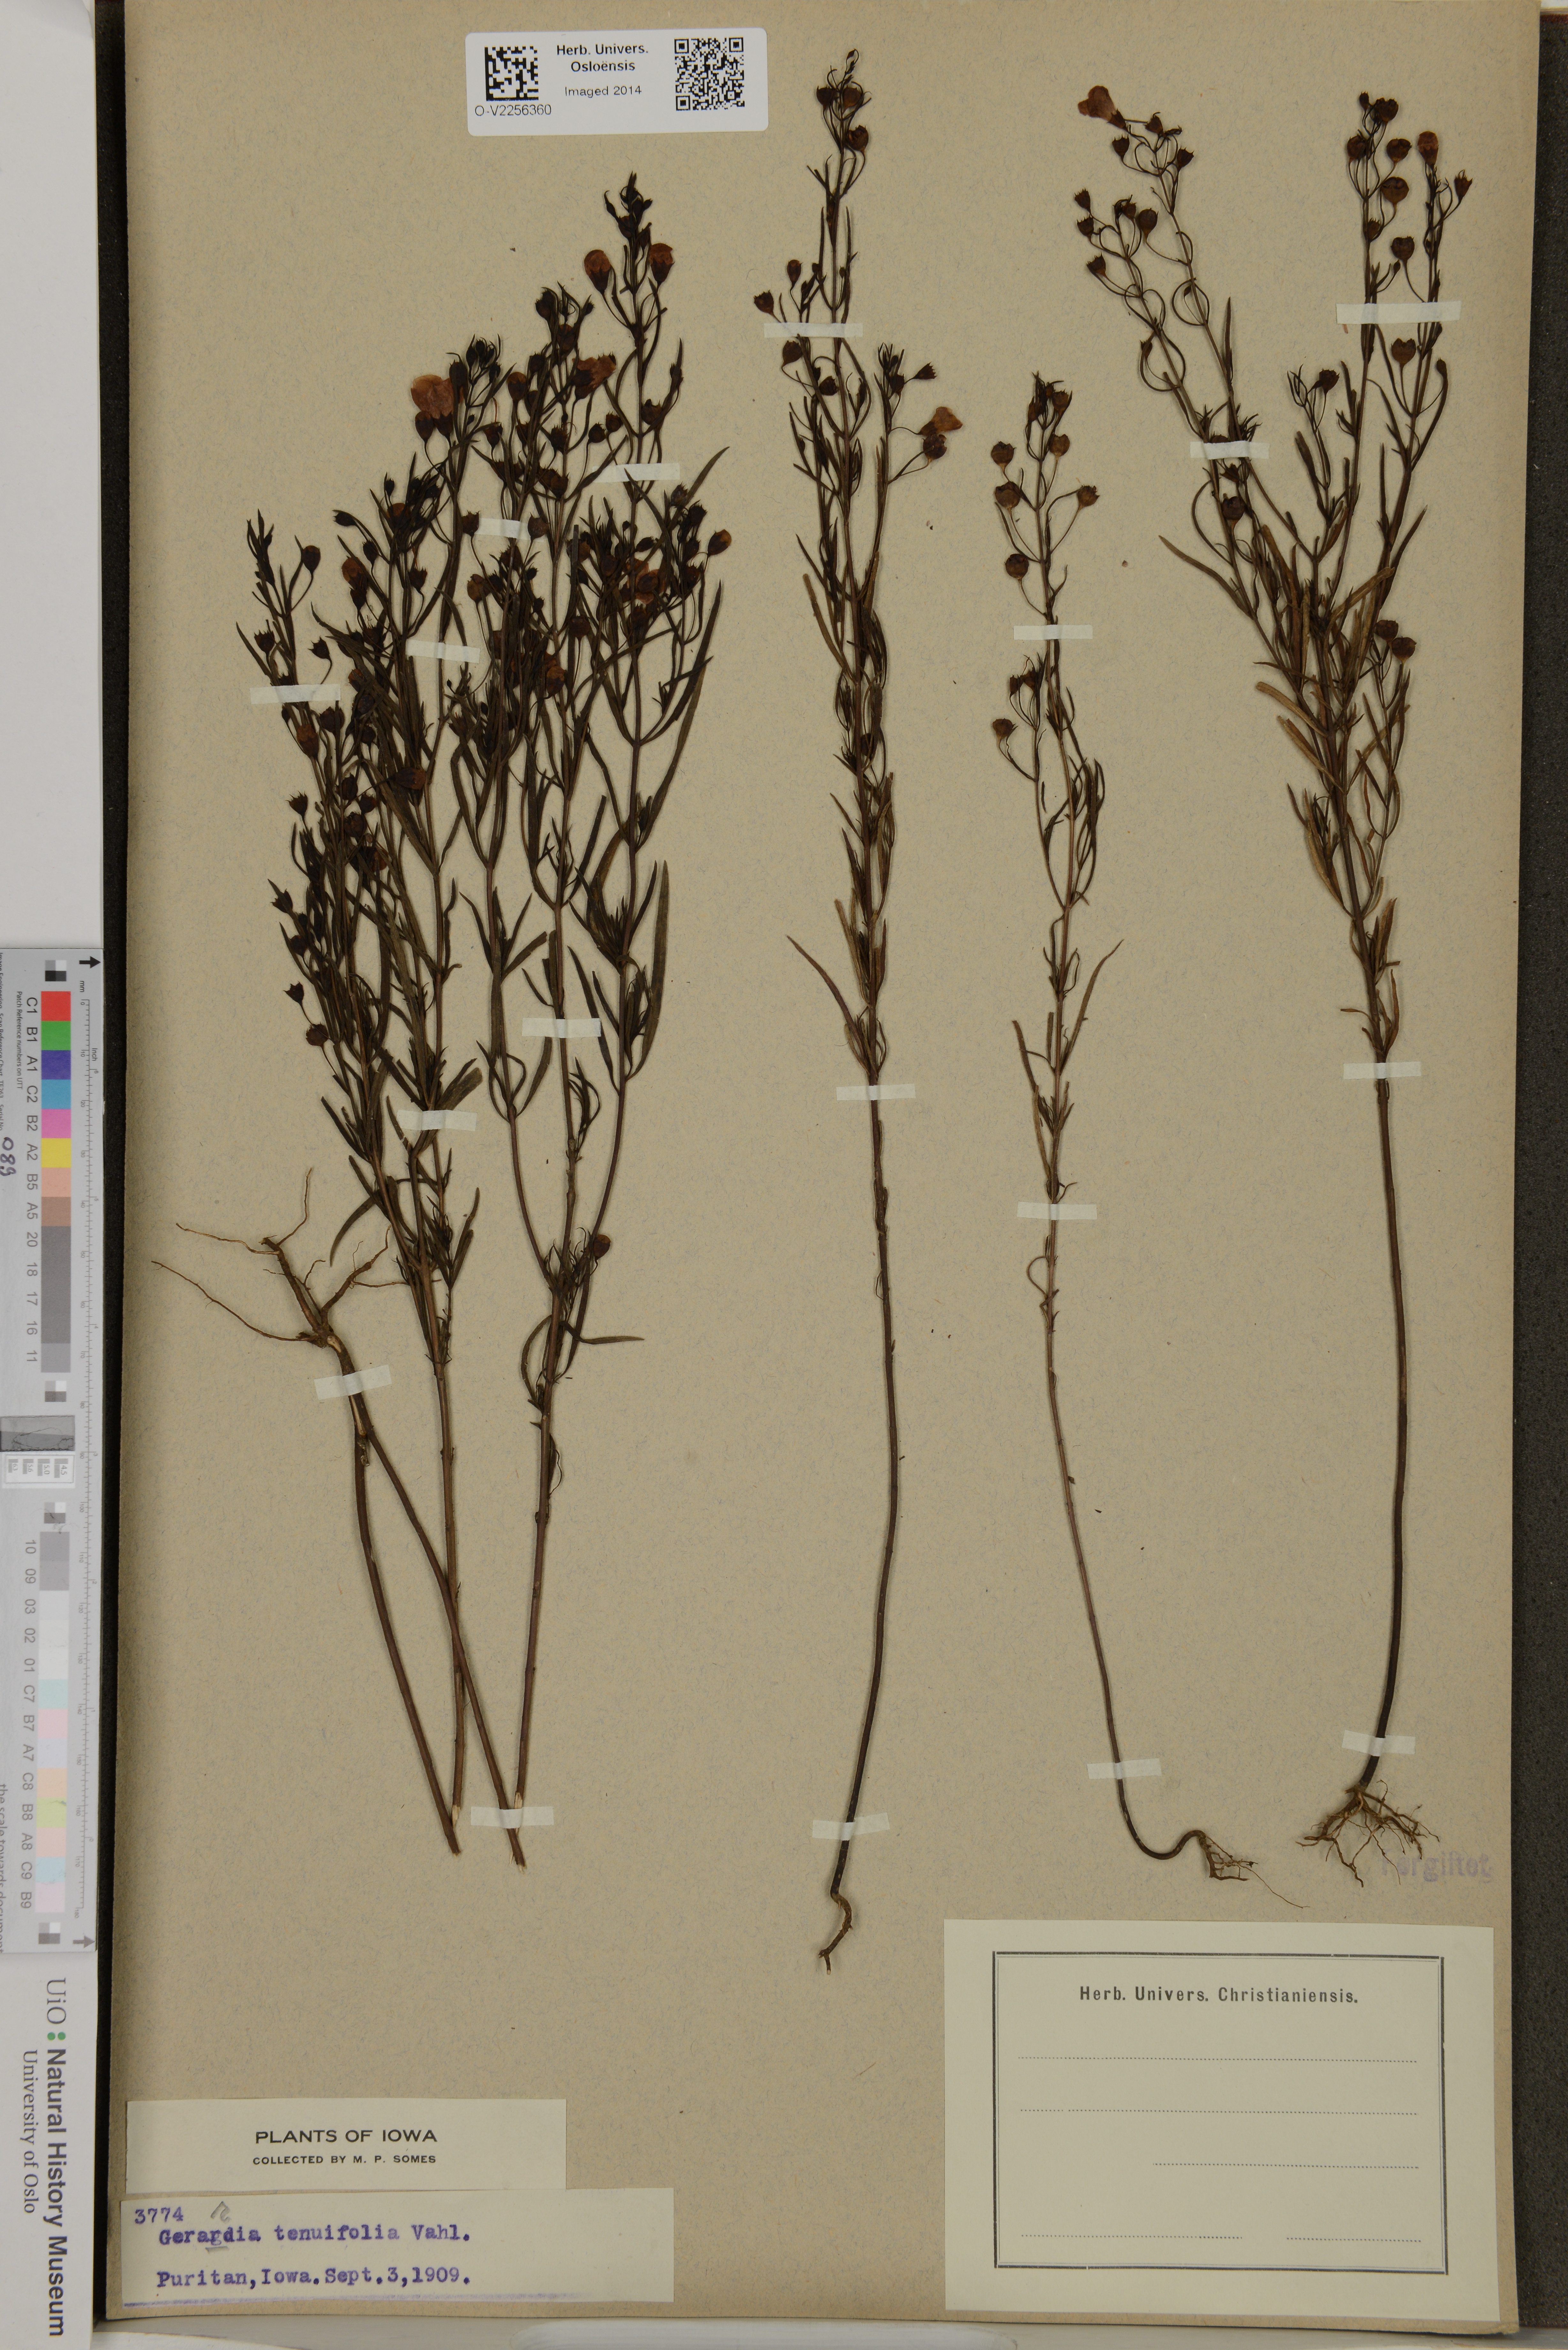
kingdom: Plantae
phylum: Tracheophyta
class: Magnoliopsida
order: Lamiales
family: Orobanchaceae
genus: Agalinis
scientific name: Agalinis tenuifolia
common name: Slender agalinis
